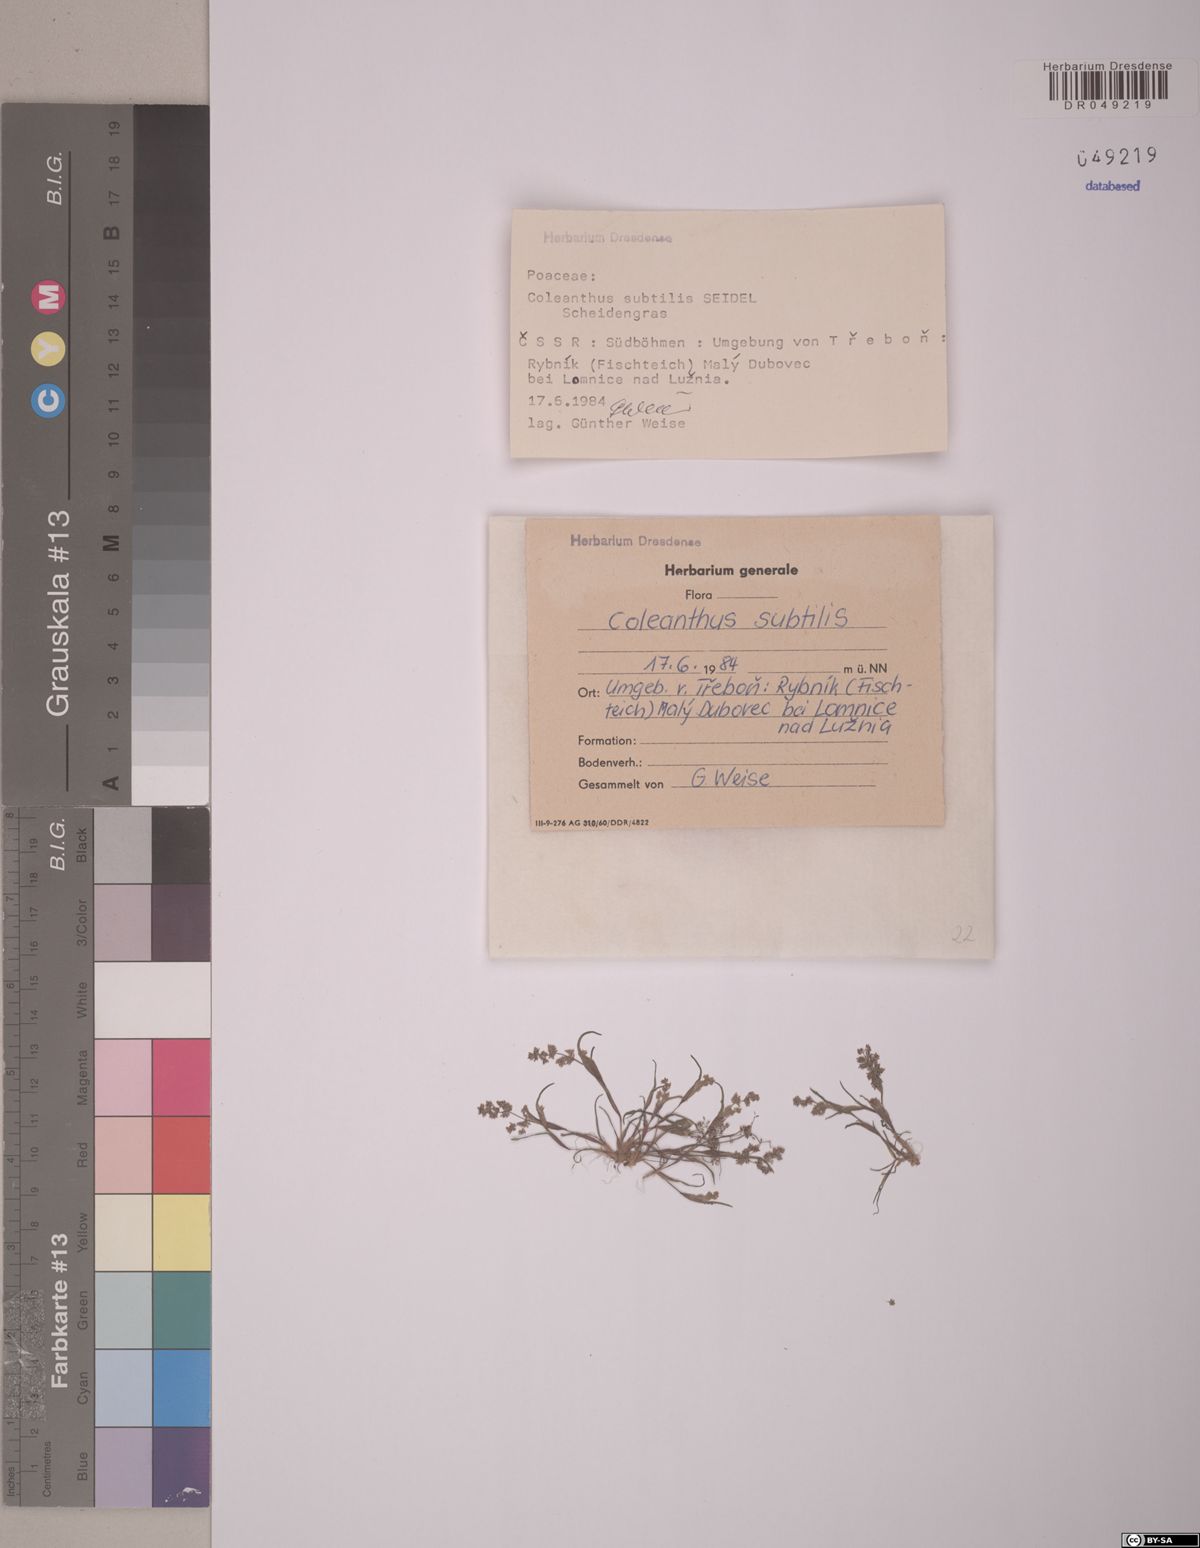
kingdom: Plantae
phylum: Tracheophyta
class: Liliopsida
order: Poales
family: Poaceae
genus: Coleanthus
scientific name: Coleanthus subtilis
